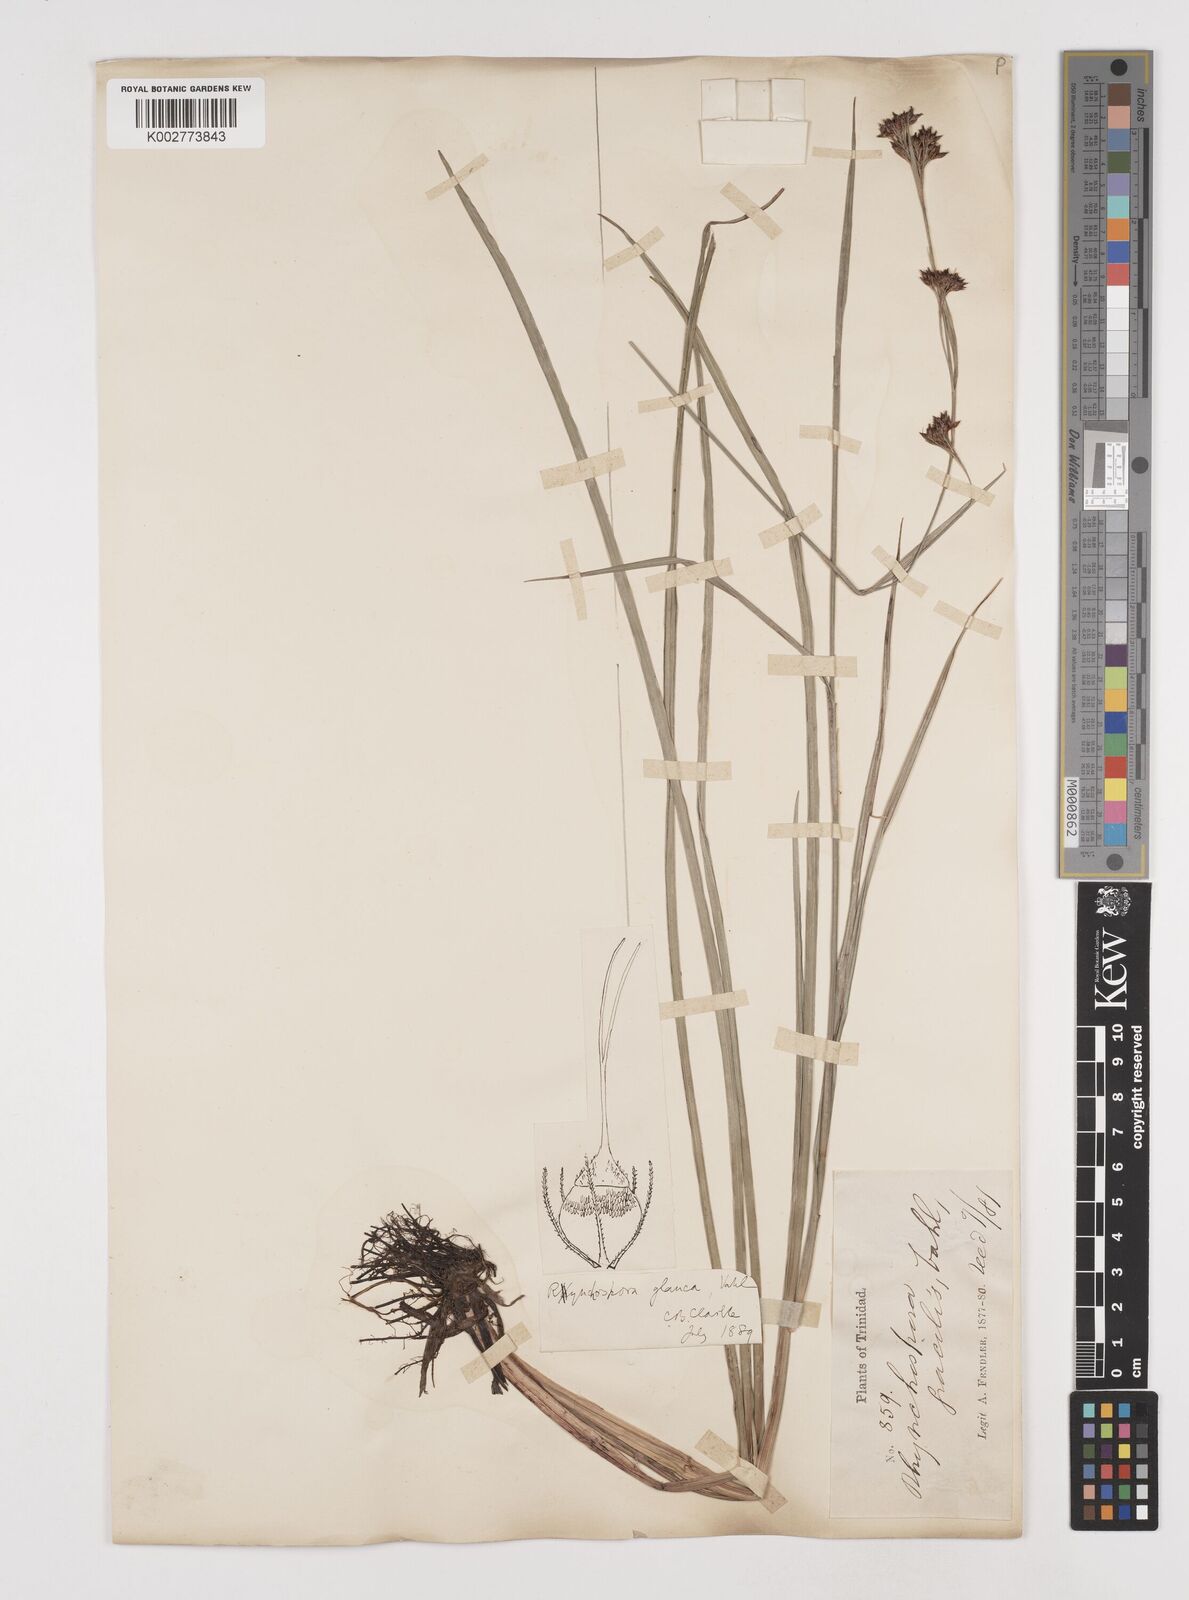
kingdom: Plantae
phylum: Tracheophyta
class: Liliopsida
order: Poales
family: Cyperaceae
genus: Rhynchospora
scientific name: Rhynchospora rugosa
